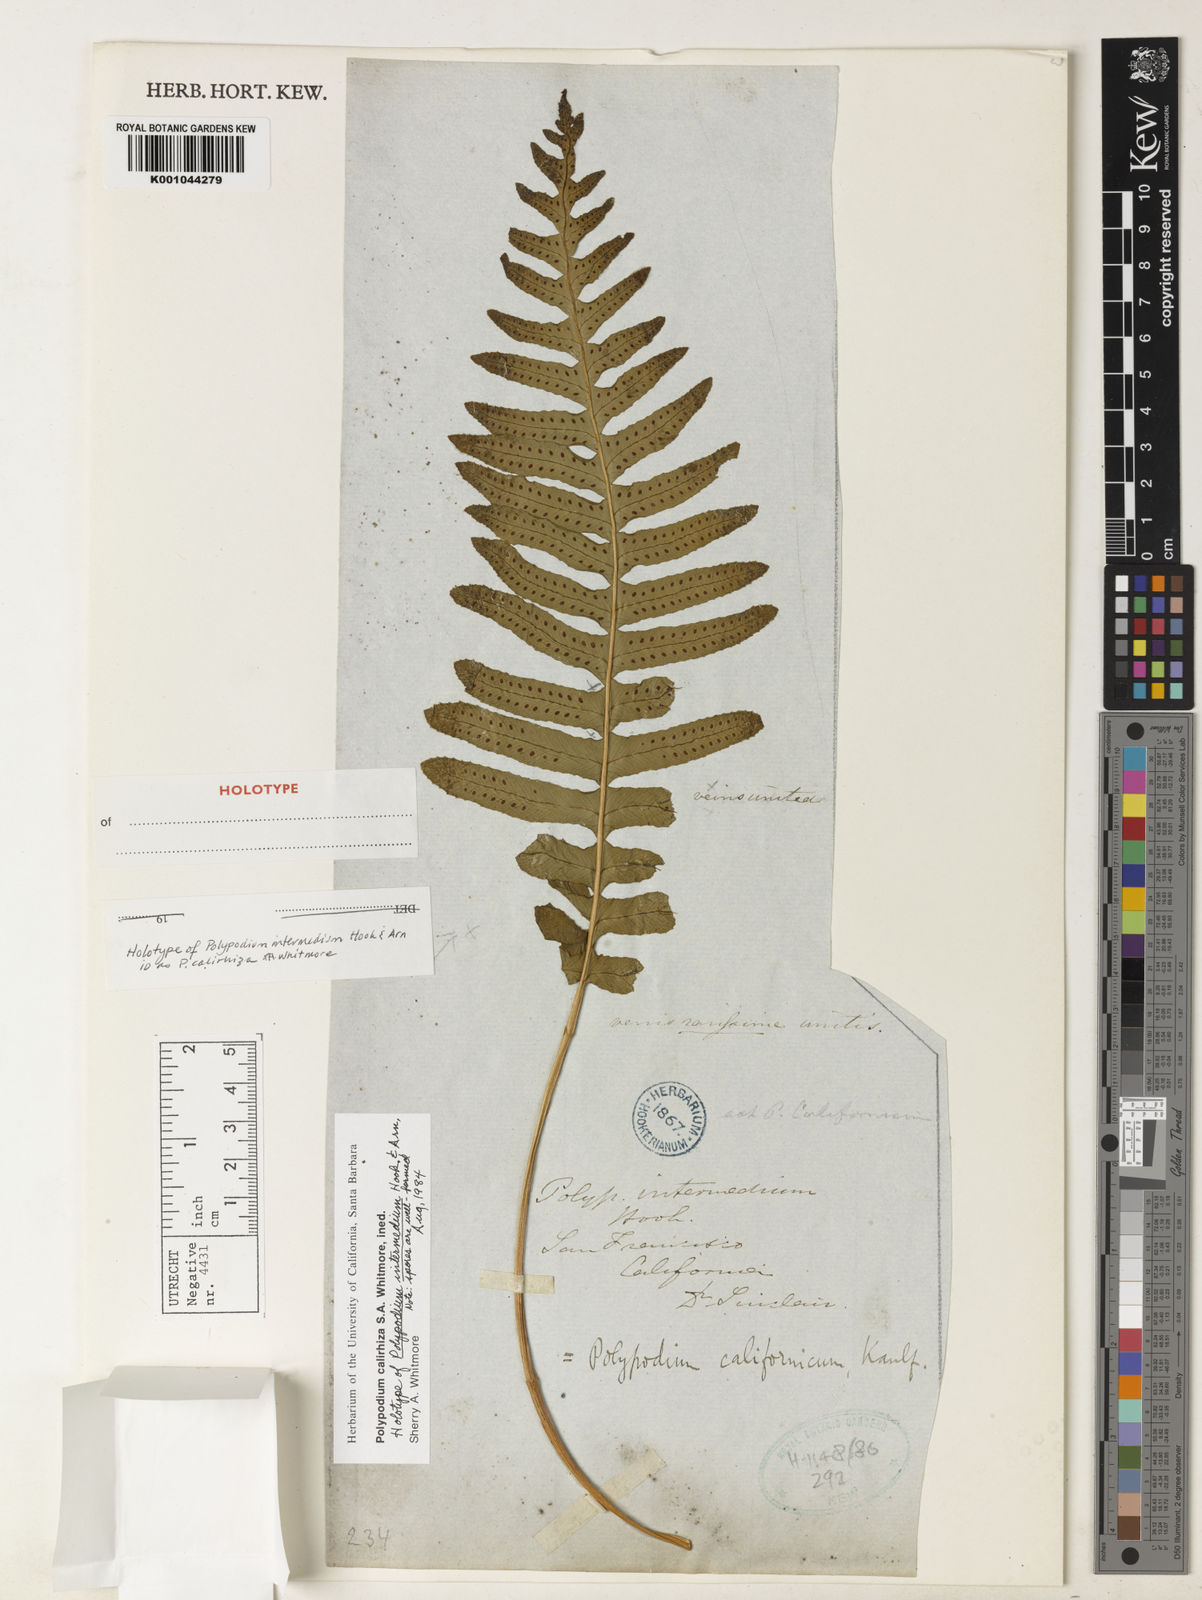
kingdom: Plantae
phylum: Tracheophyta
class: Polypodiopsida
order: Polypodiales
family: Polypodiaceae
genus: Polypodium
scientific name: Polypodium calirhiza
